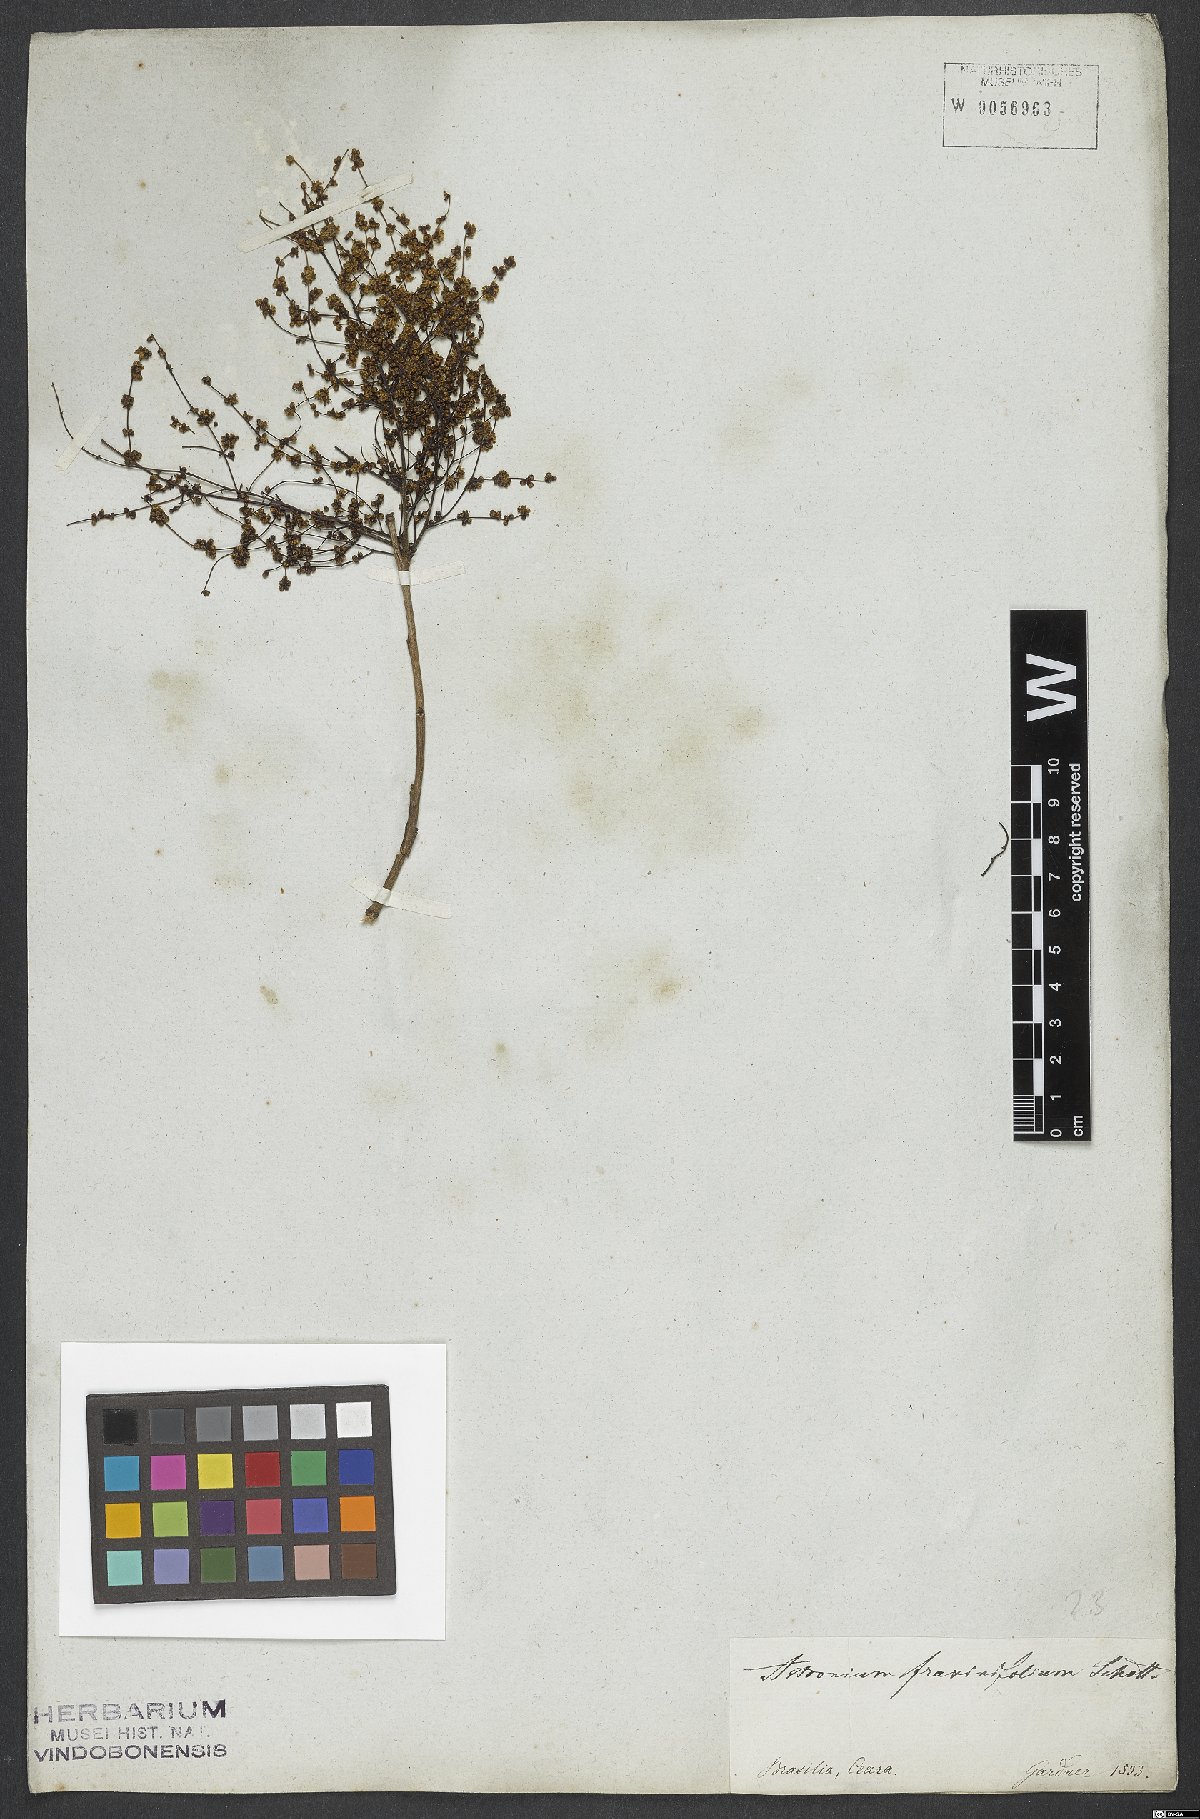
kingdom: Plantae
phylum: Tracheophyta
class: Magnoliopsida
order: Sapindales
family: Anacardiaceae
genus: Astronium
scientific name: Astronium fraxinifolium
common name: Tigerwood
